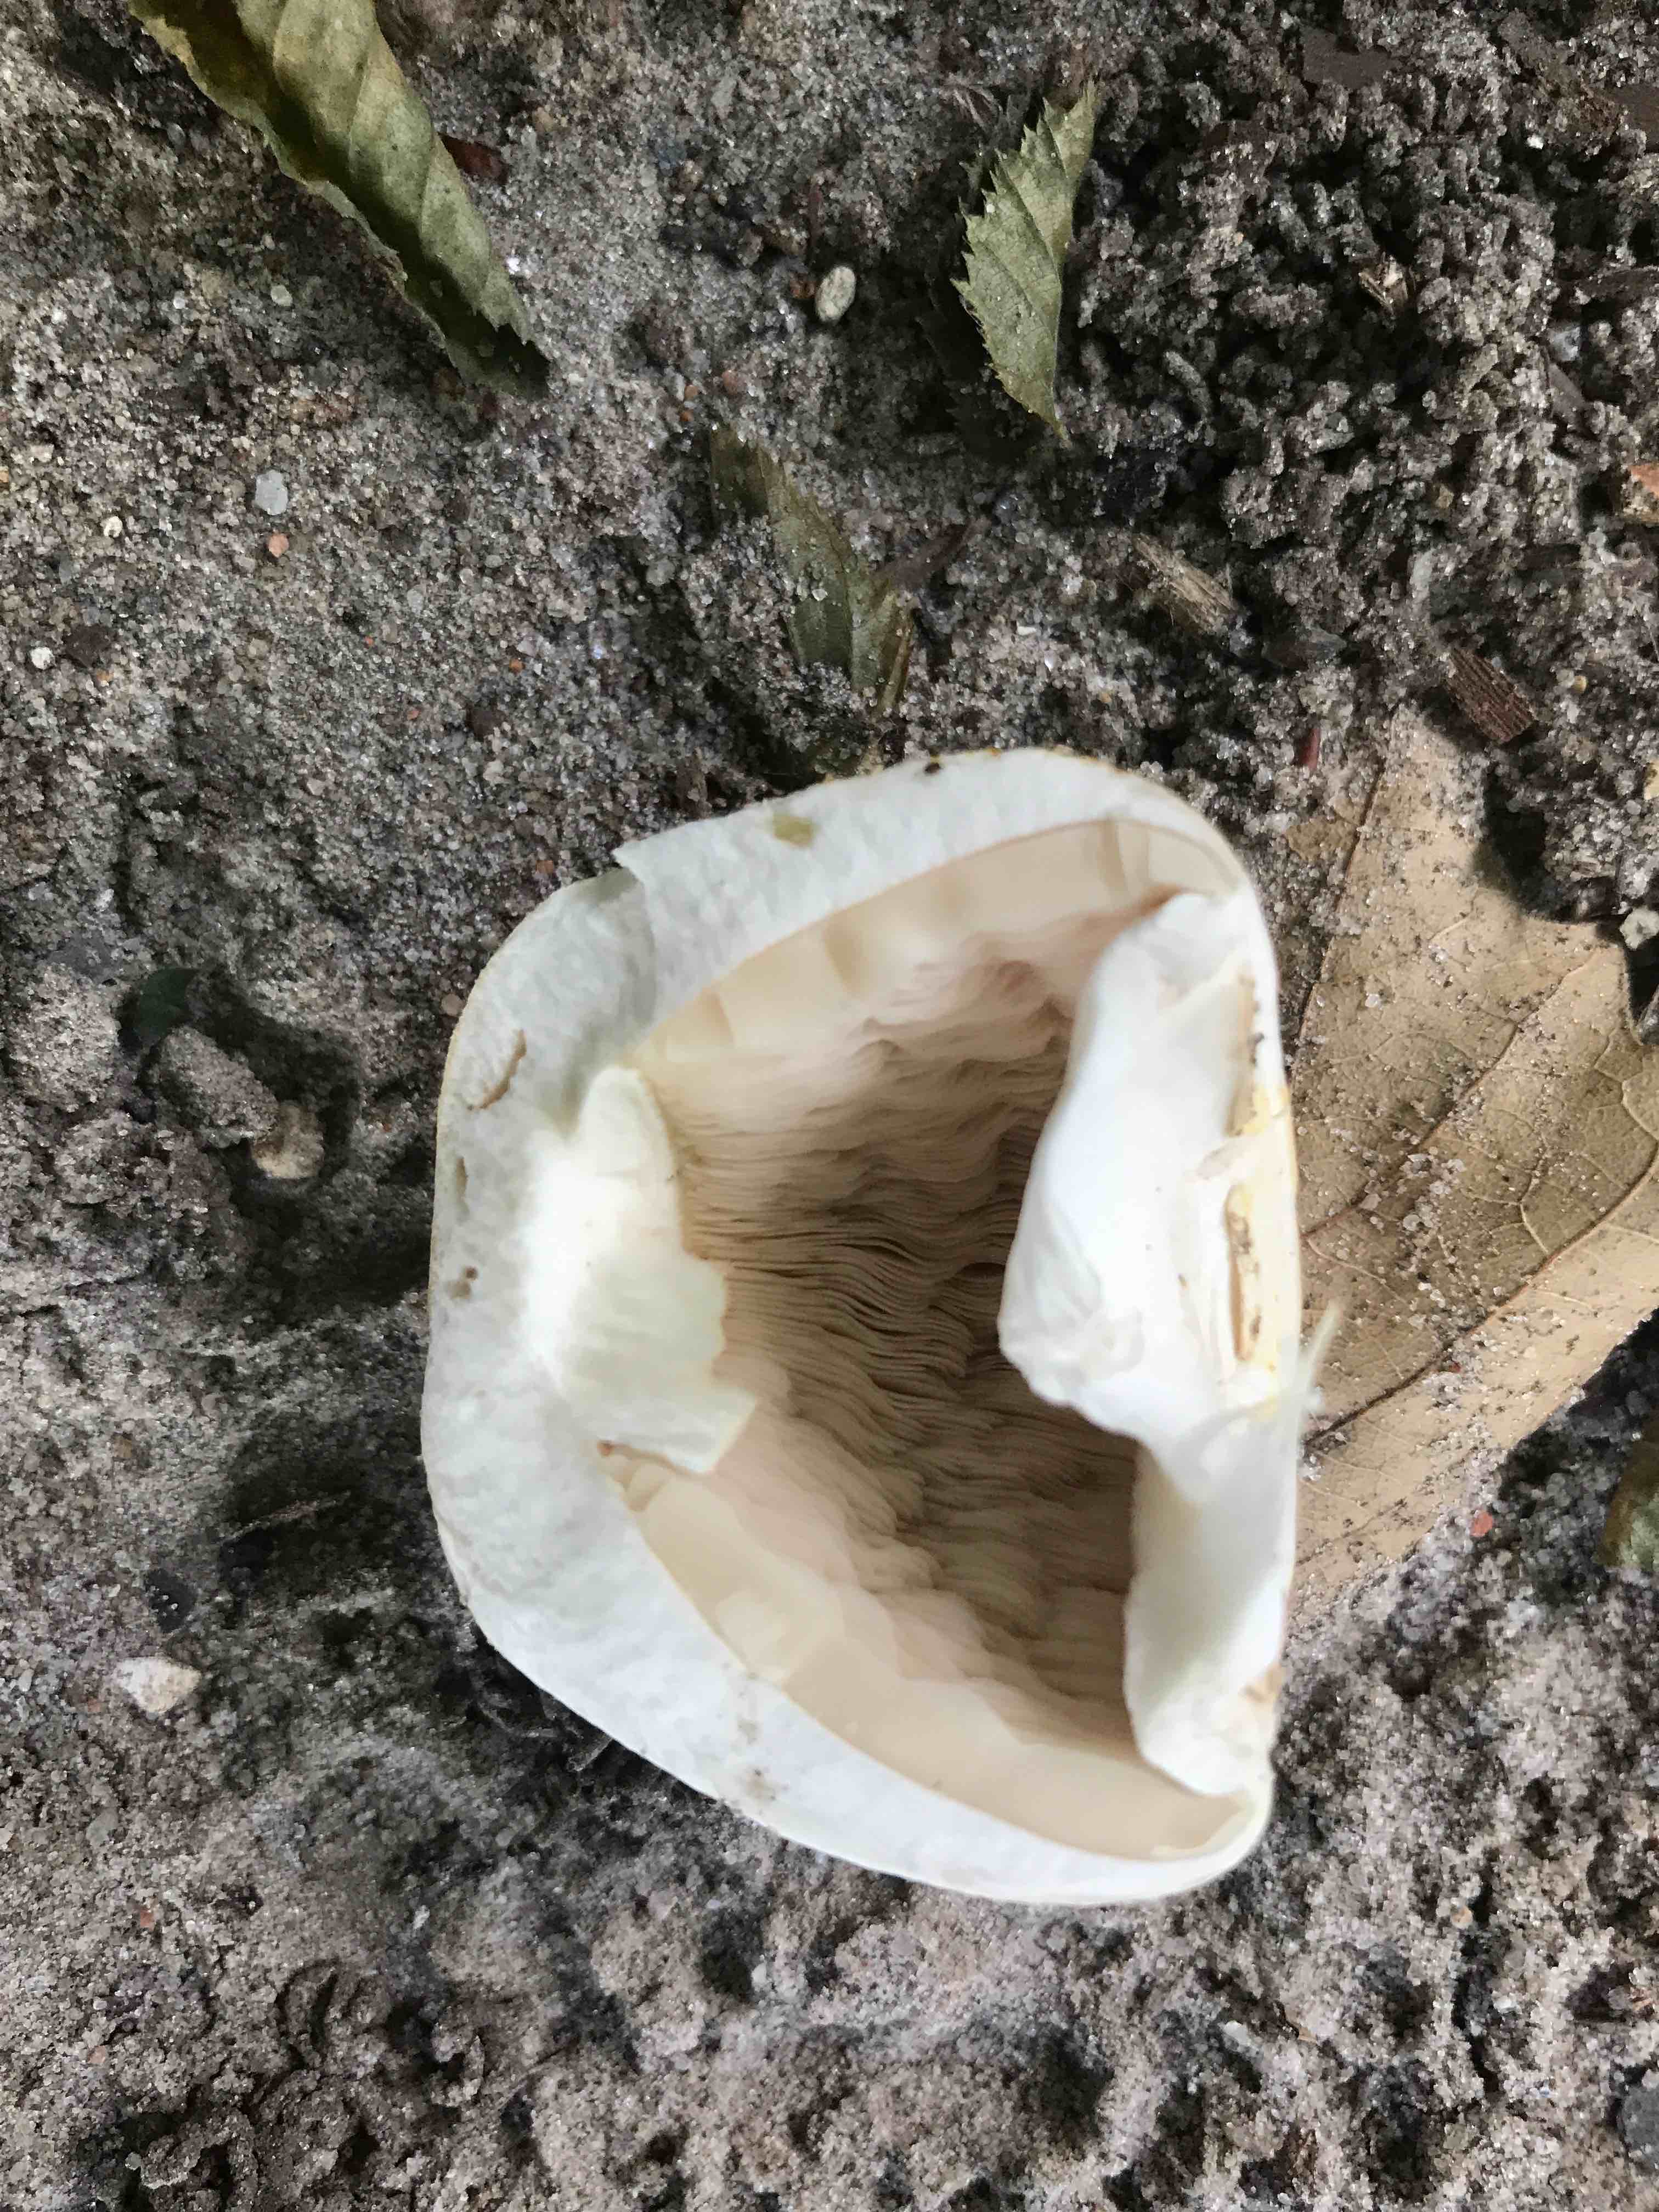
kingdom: Fungi
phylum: Basidiomycota
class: Agaricomycetes
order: Agaricales
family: Agaricaceae
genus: Agaricus
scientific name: Agaricus xanthodermus
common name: karbol-champignon
